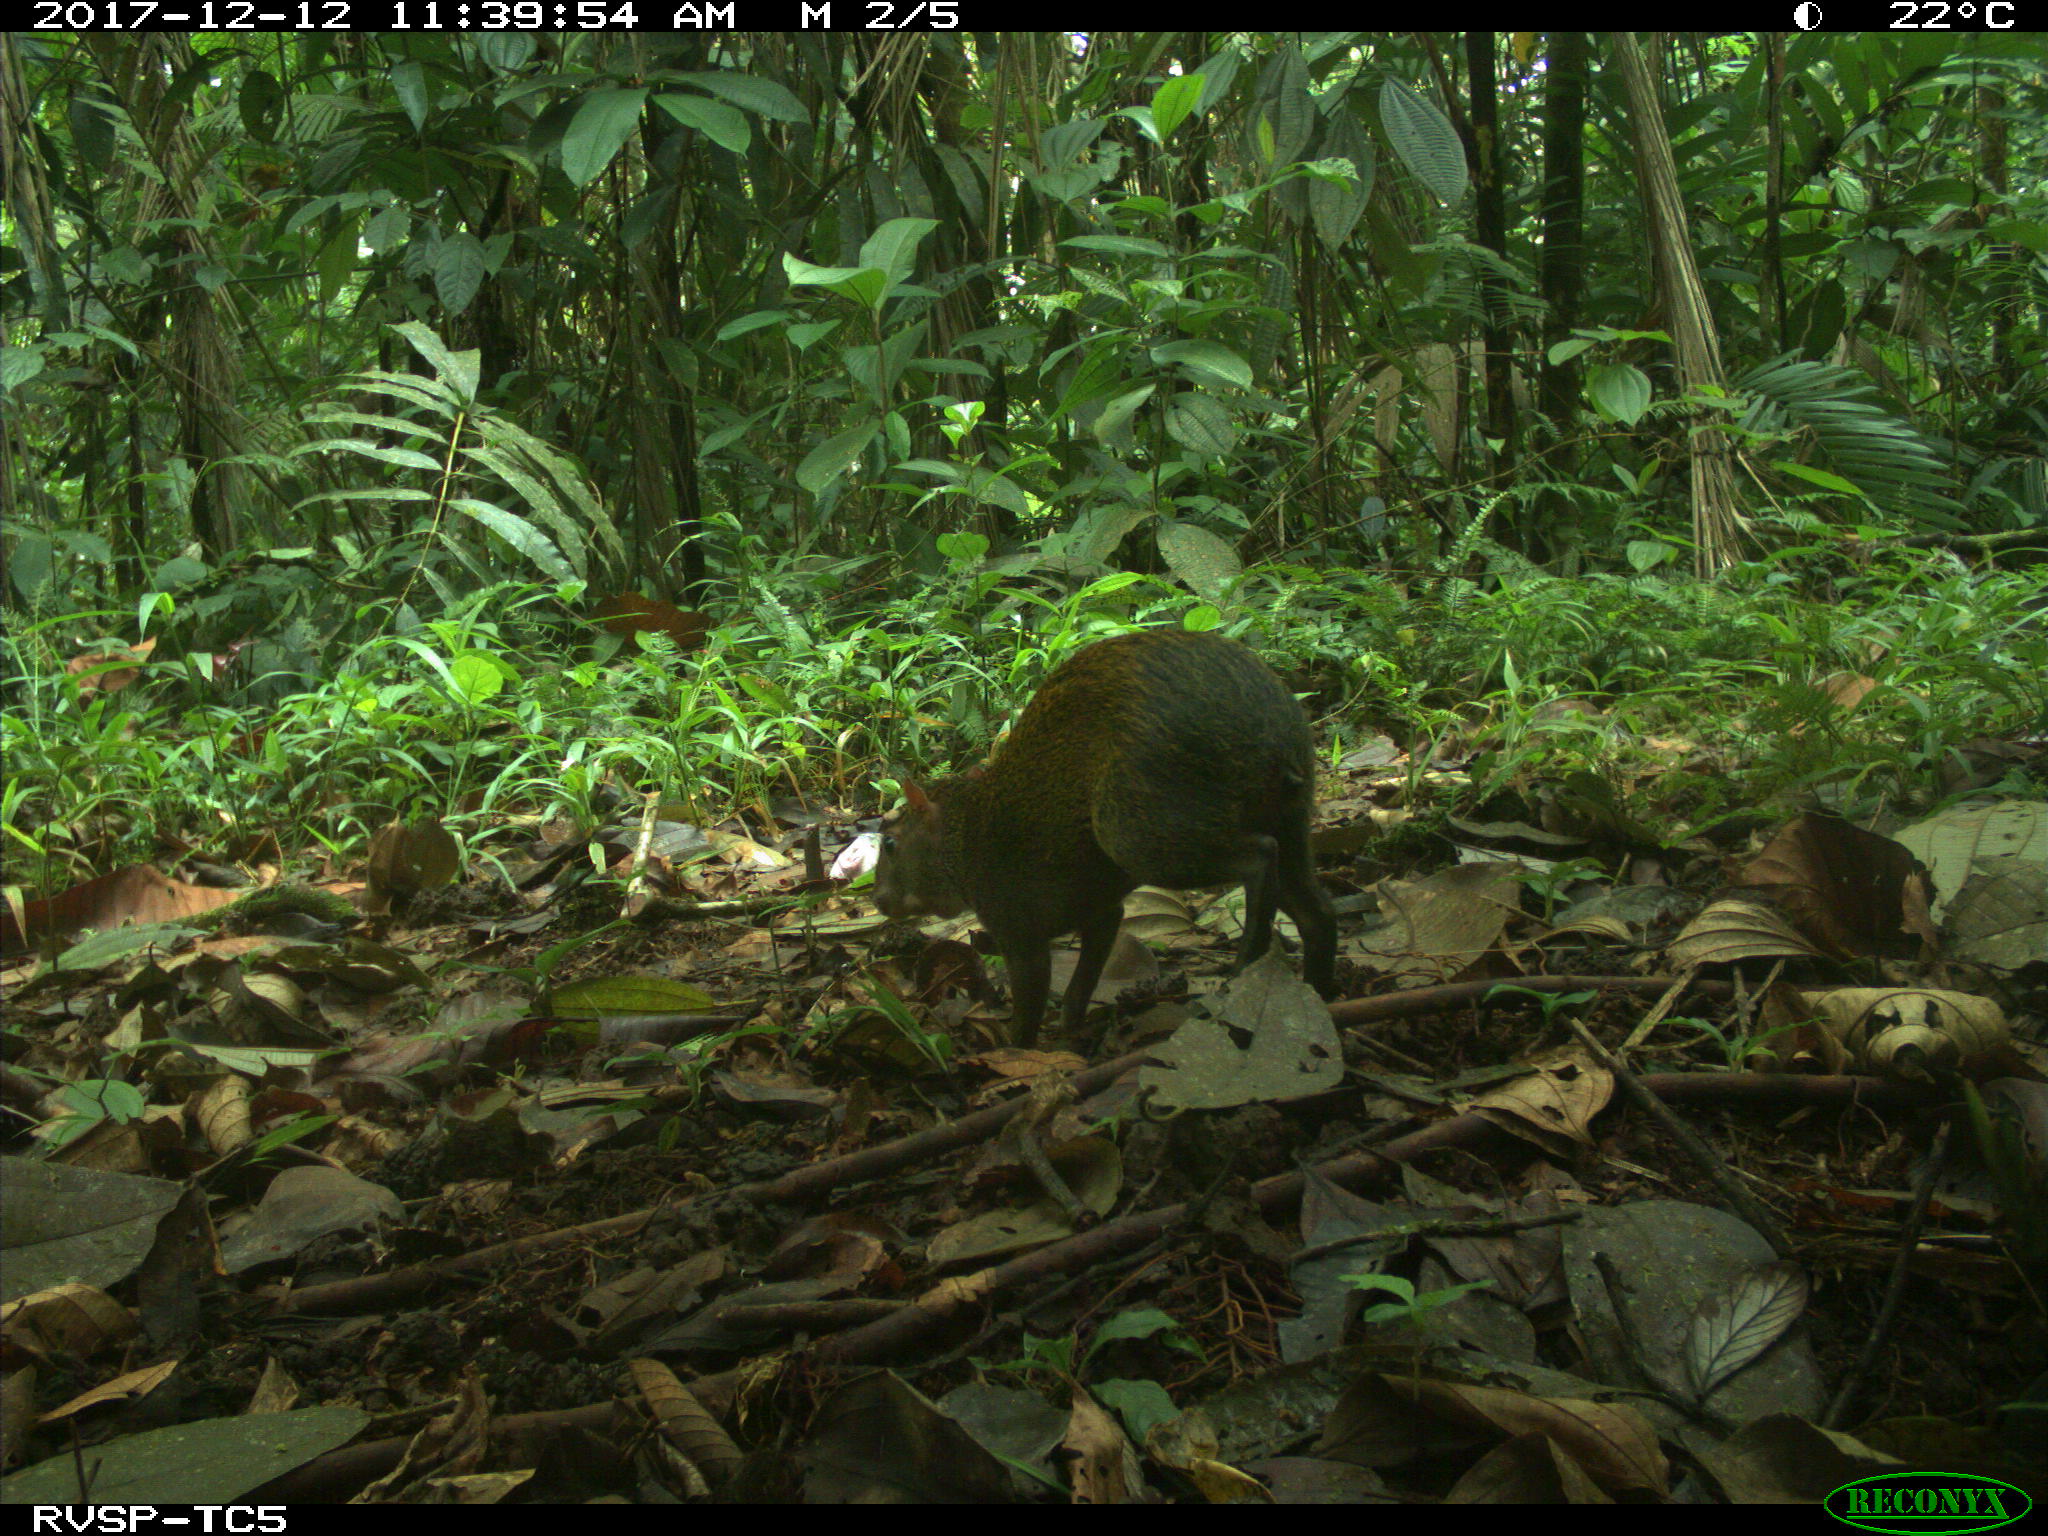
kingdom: Animalia
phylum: Chordata
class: Mammalia
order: Rodentia
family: Dasyproctidae
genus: Dasyprocta
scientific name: Dasyprocta punctata
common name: Central american agouti
